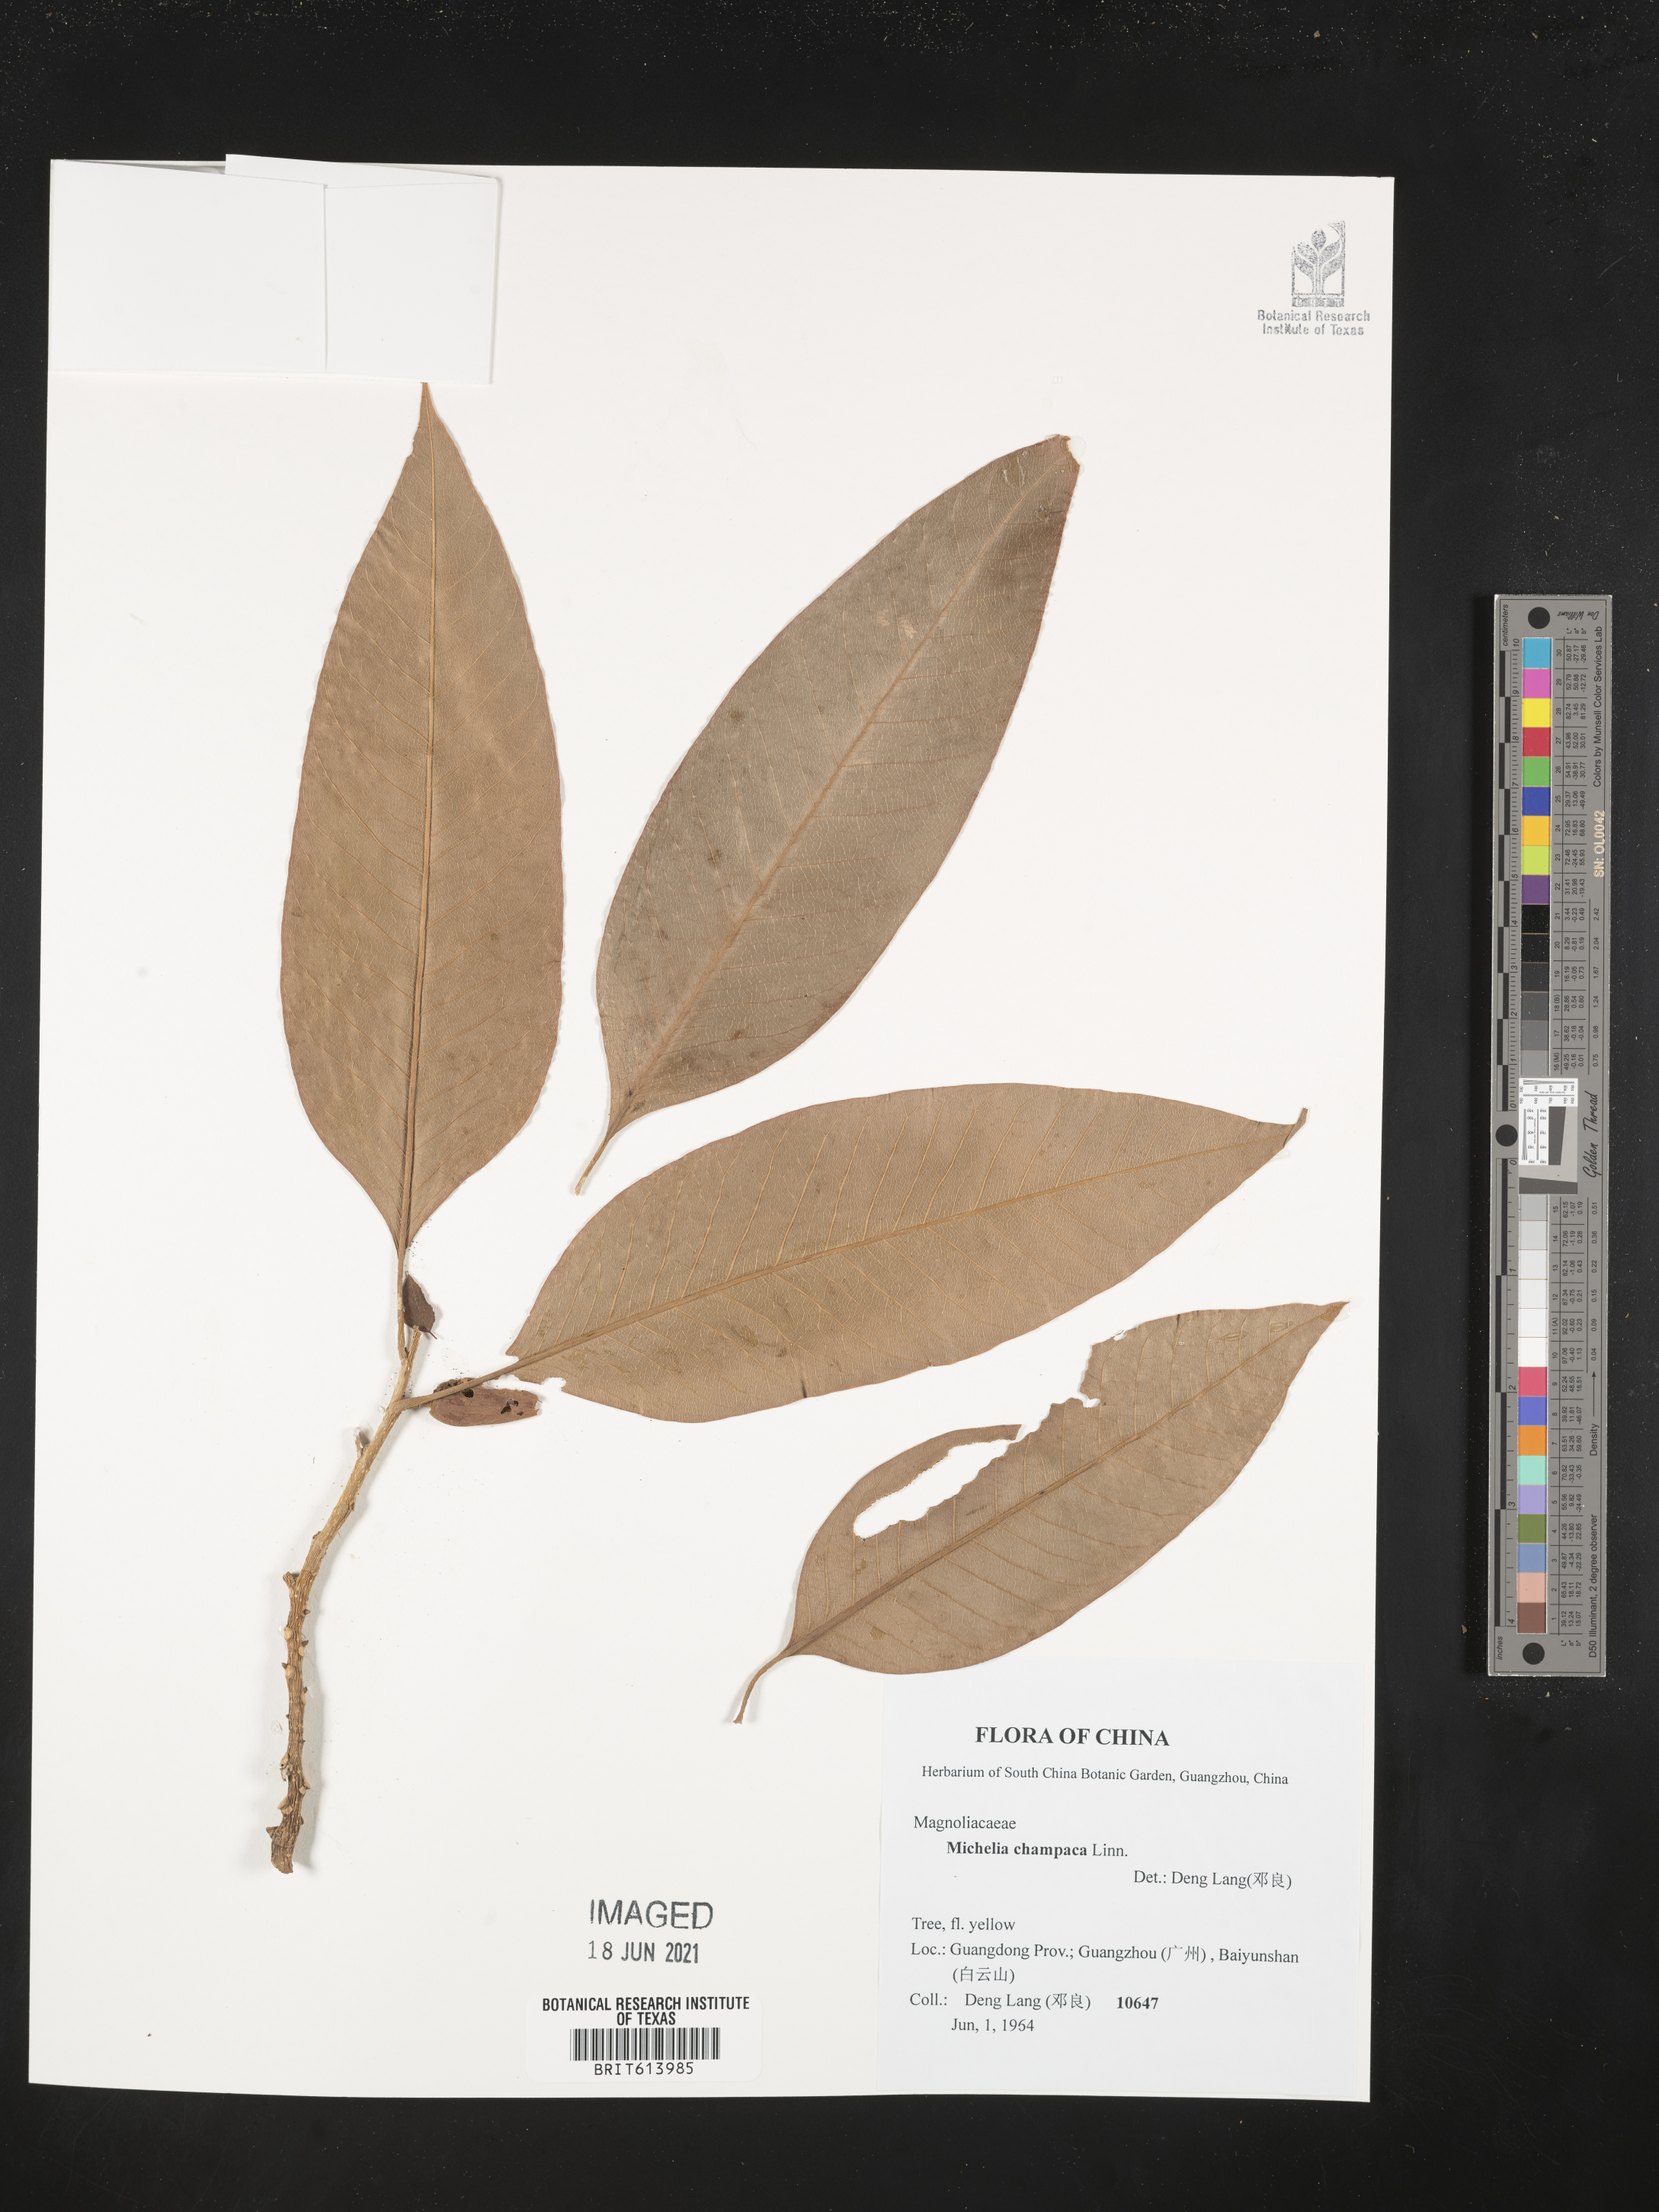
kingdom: Plantae
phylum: Tracheophyta
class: Magnoliopsida
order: Magnoliales
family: Magnoliaceae
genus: Magnolia
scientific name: Magnolia champaca
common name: Champak
